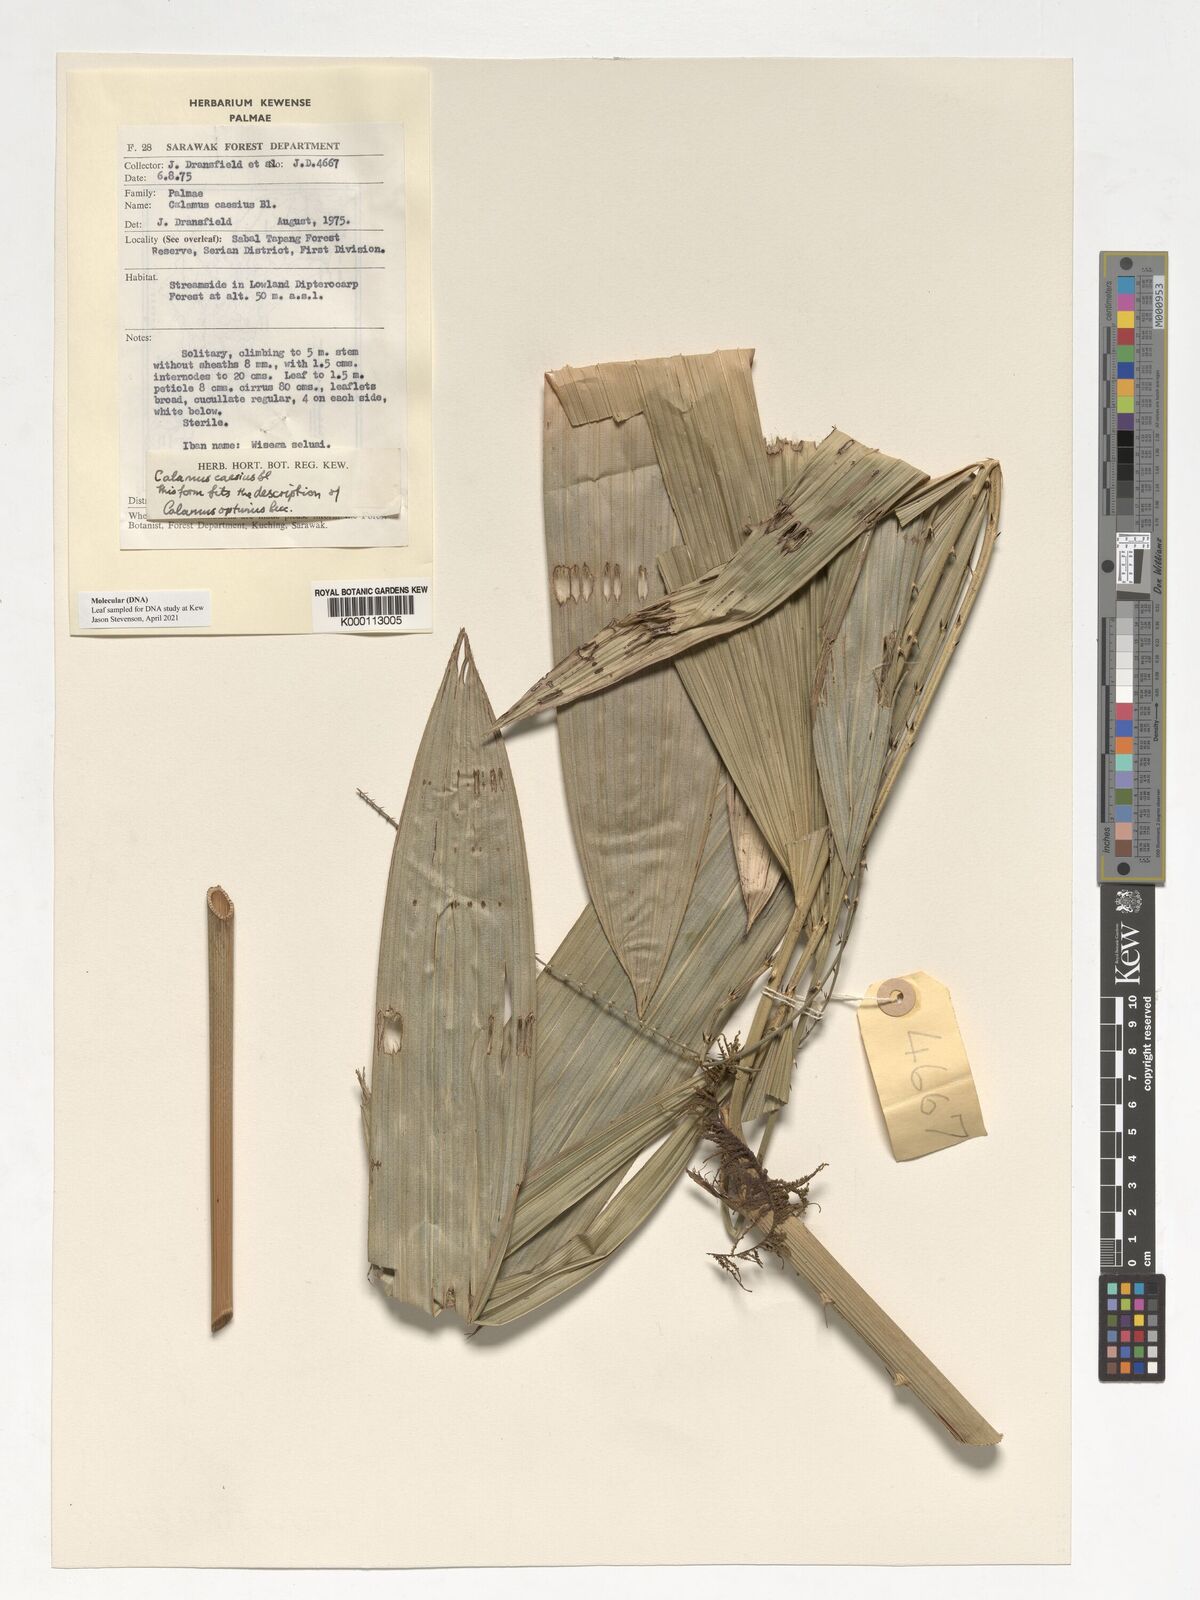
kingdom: Plantae
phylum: Tracheophyta
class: Liliopsida
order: Arecales
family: Arecaceae
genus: Calamus
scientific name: Calamus caesius
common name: Rattan palm
